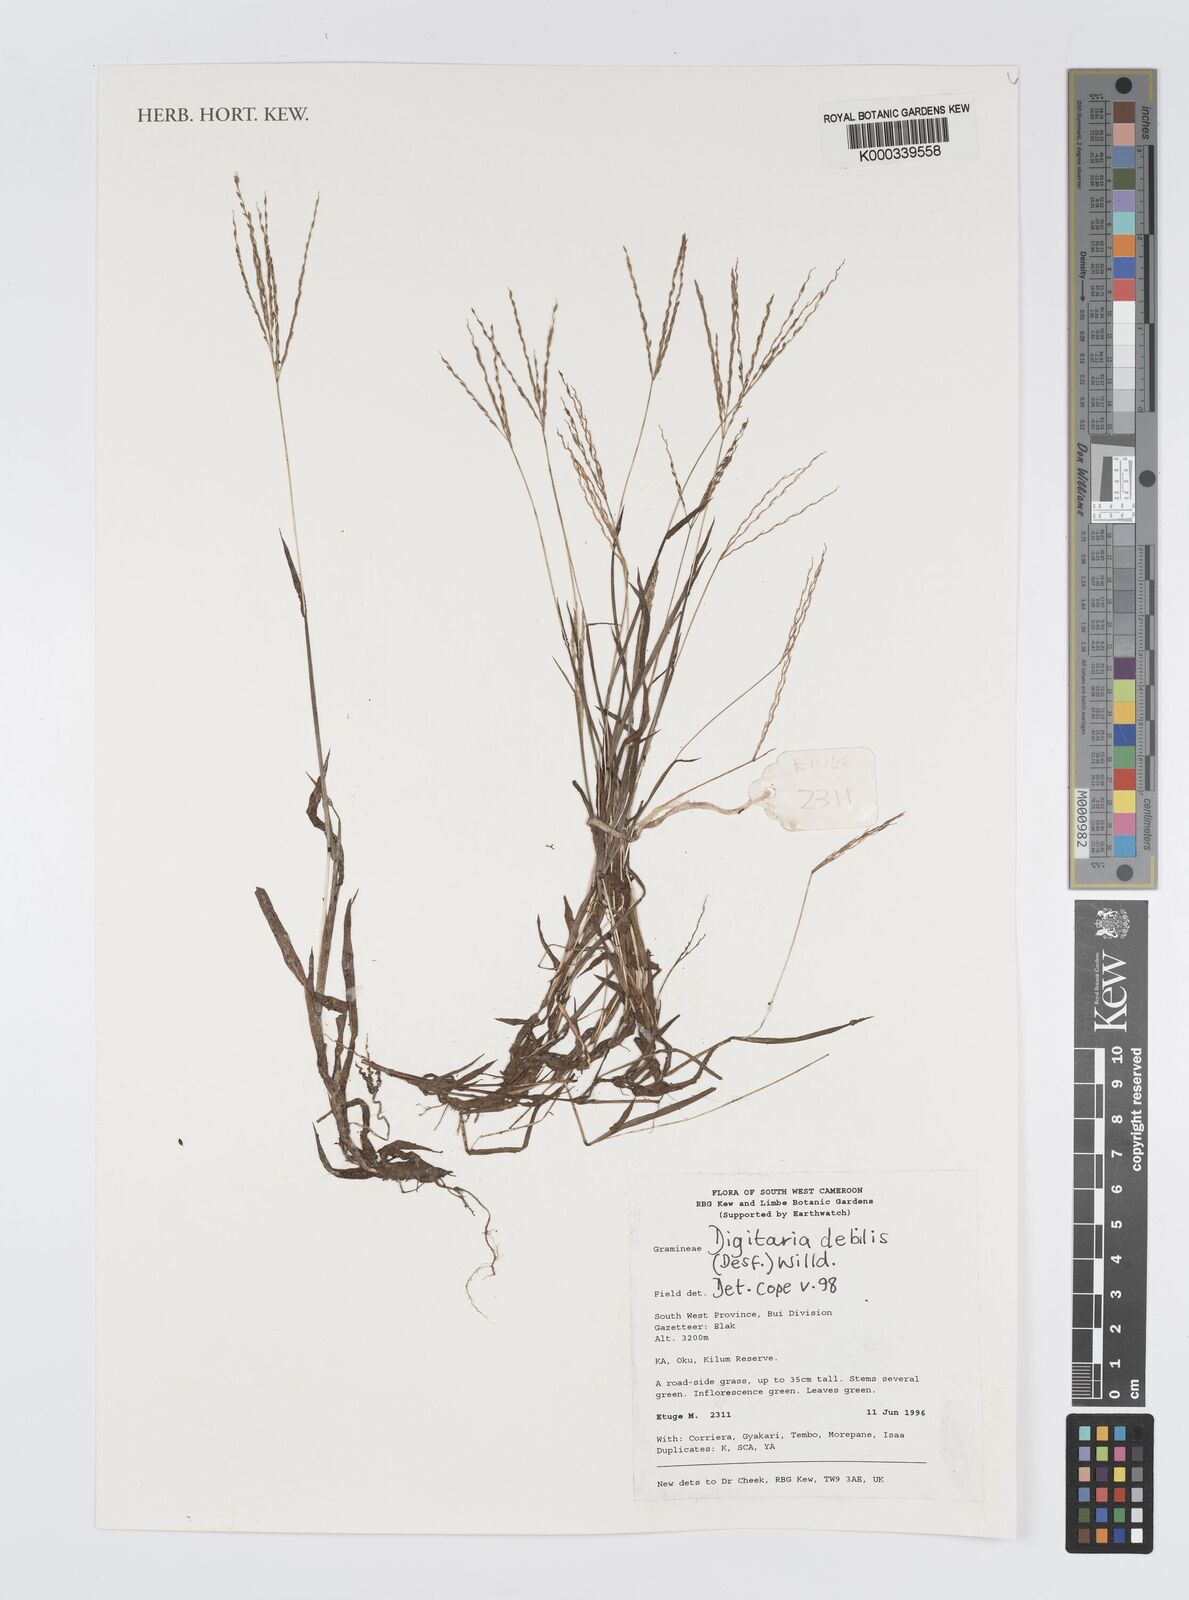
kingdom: Plantae
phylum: Tracheophyta
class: Liliopsida
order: Poales
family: Poaceae
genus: Digitaria
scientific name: Digitaria debilis
